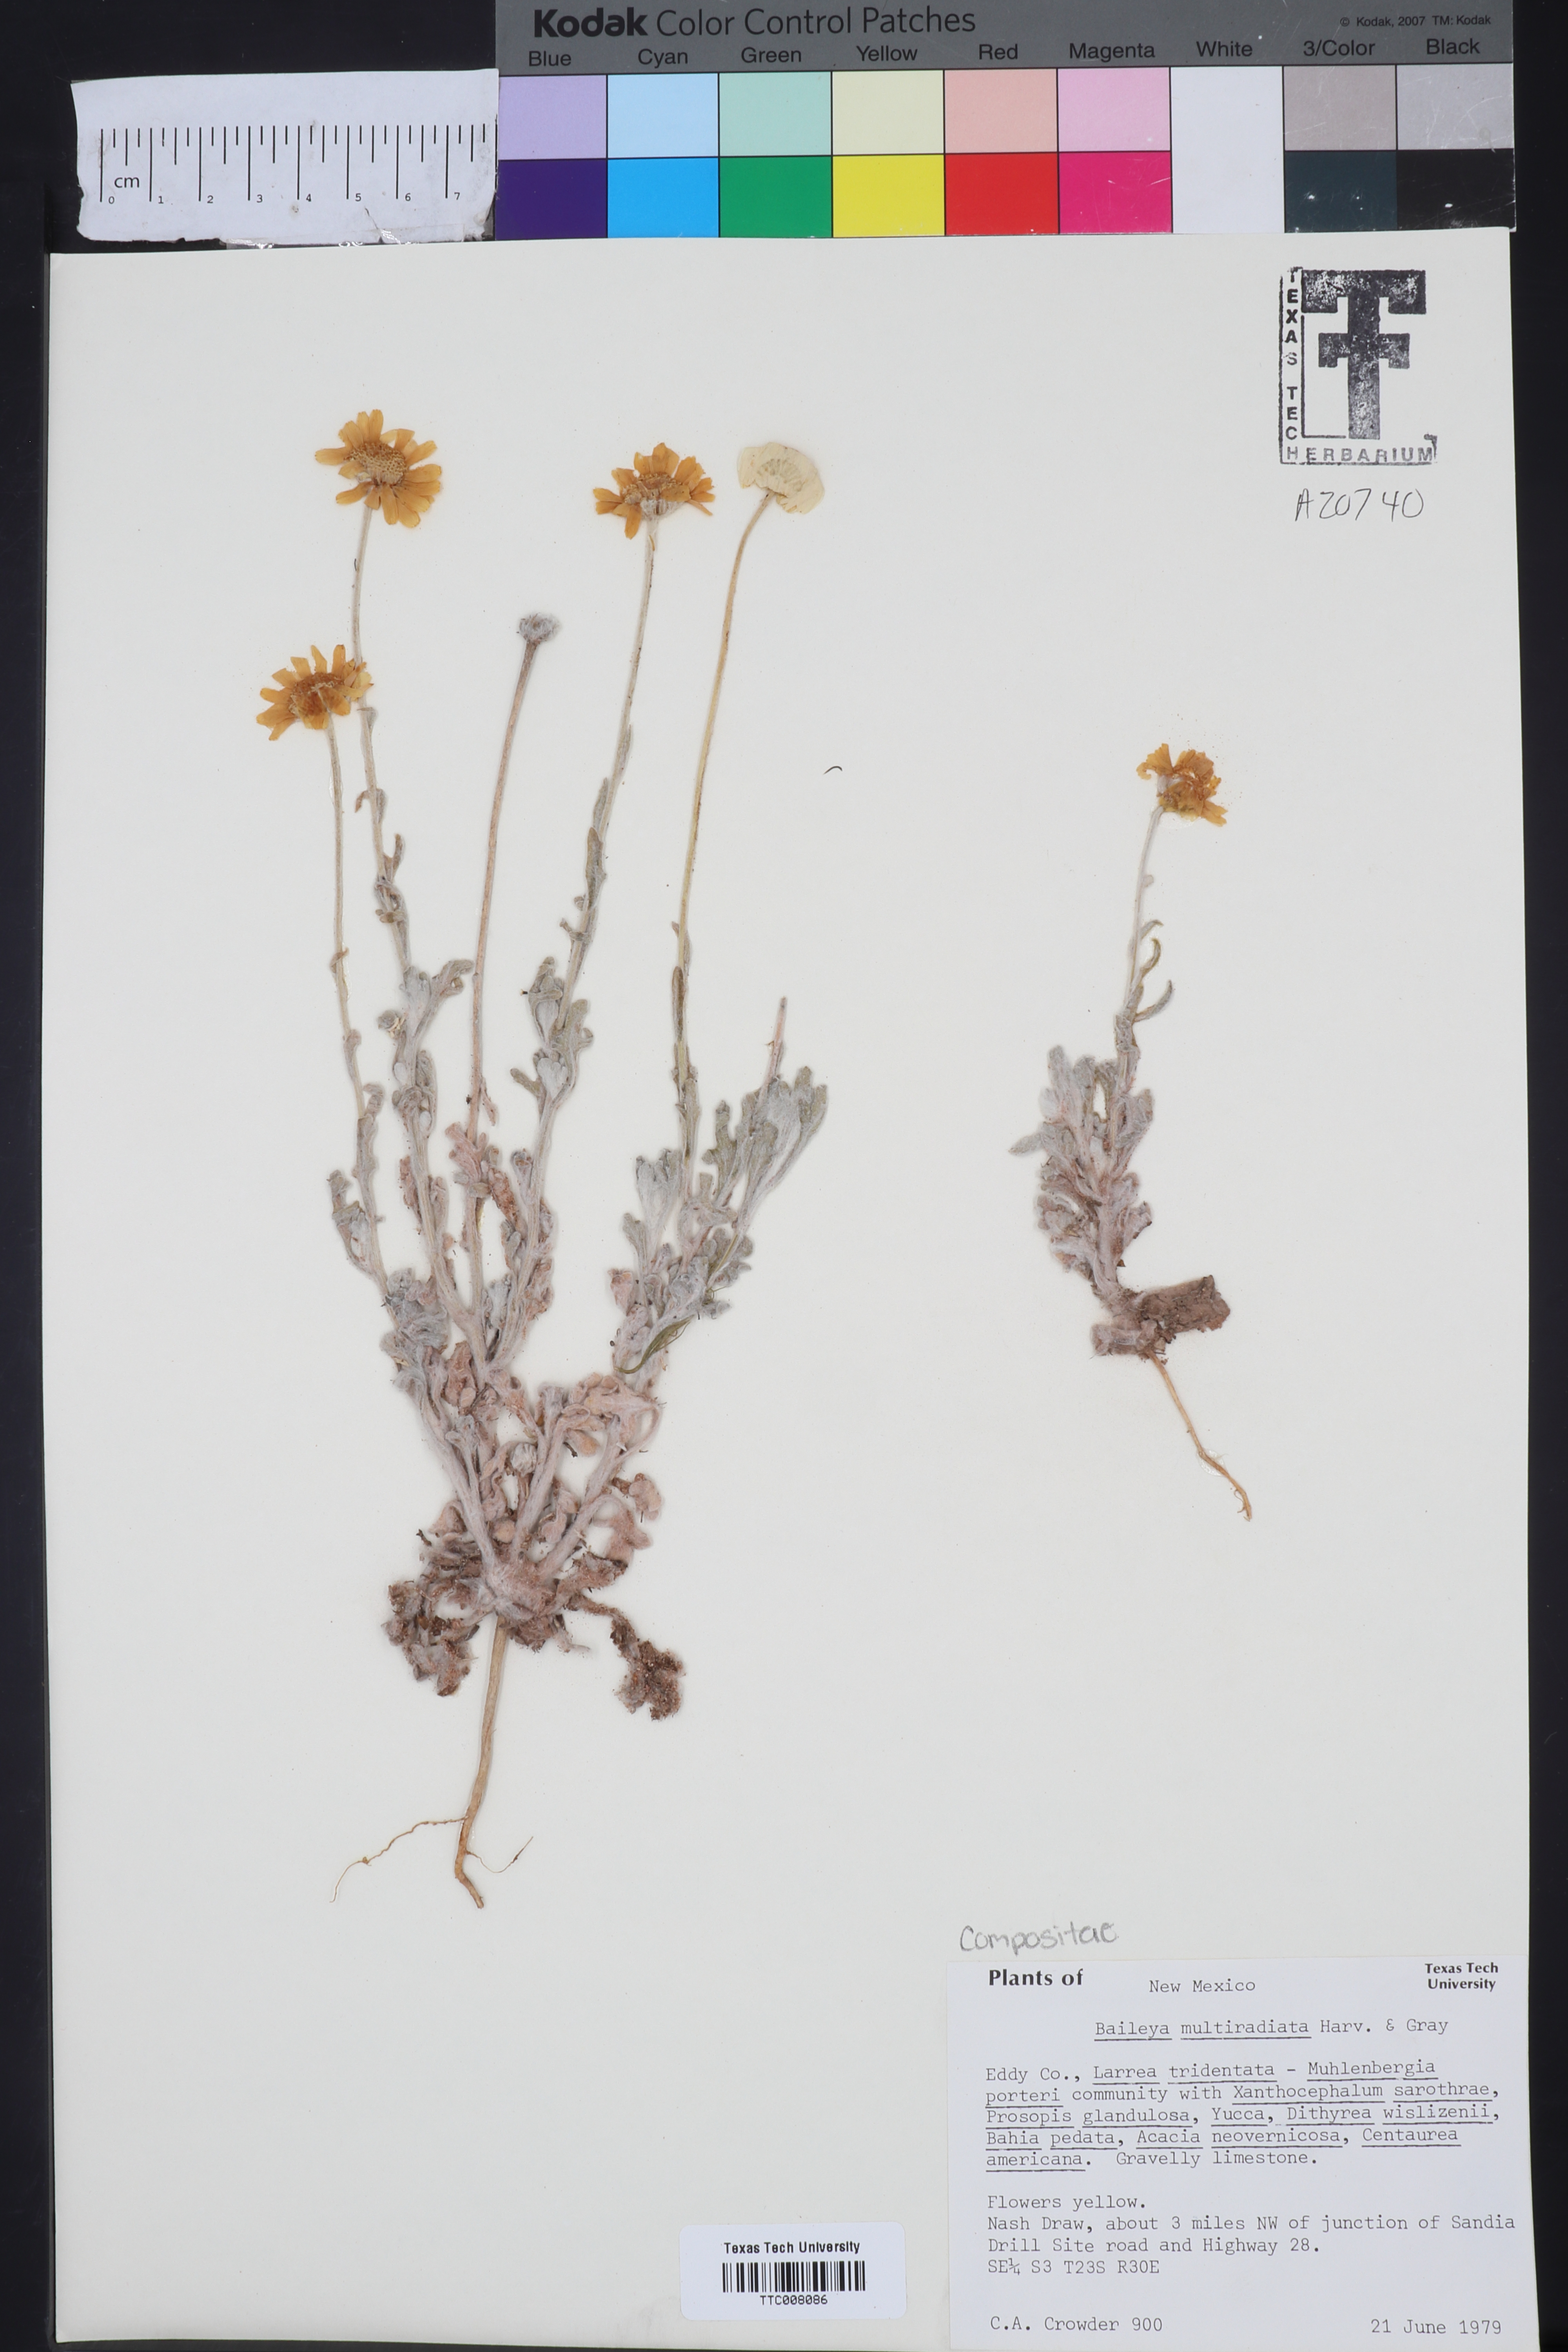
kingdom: Plantae
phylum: Tracheophyta
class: Magnoliopsida
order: Asterales
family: Asteraceae
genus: Baileya
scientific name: Baileya multiradiata
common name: Desert-marigold
